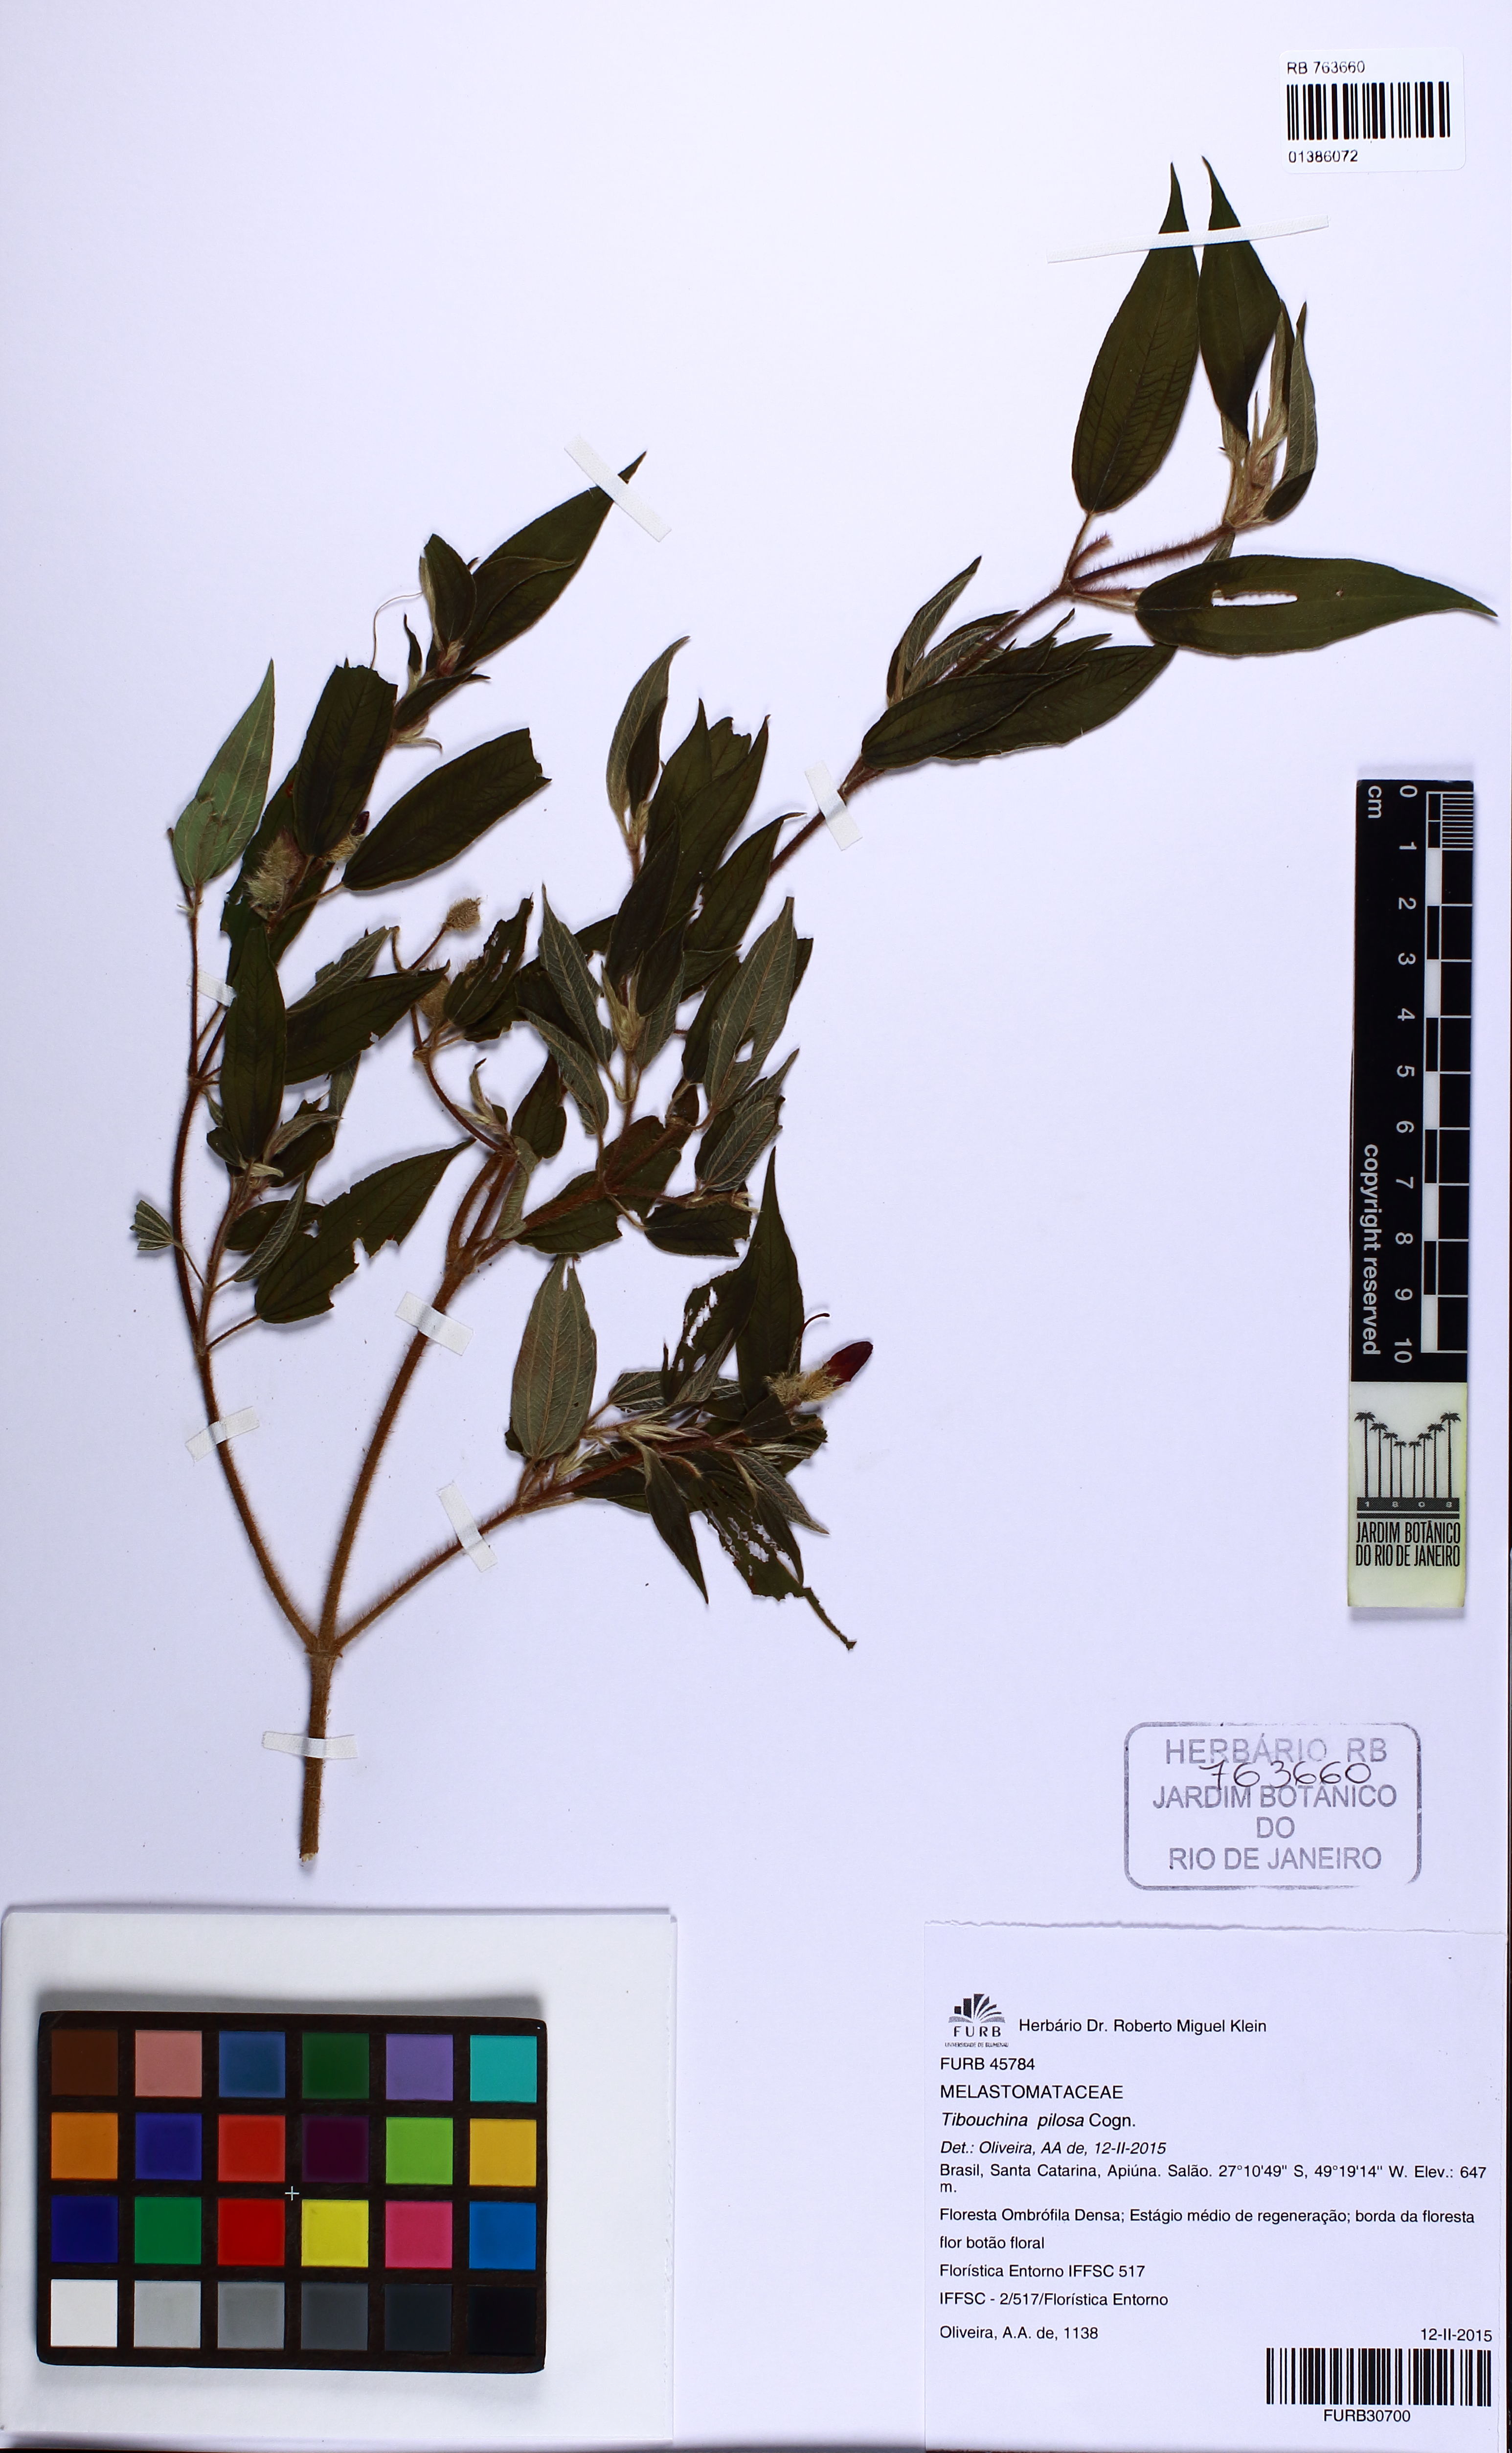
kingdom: Plantae
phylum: Tracheophyta
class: Magnoliopsida
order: Myrtales
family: Melastomataceae
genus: Pleroma
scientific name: Pleroma pilosum
